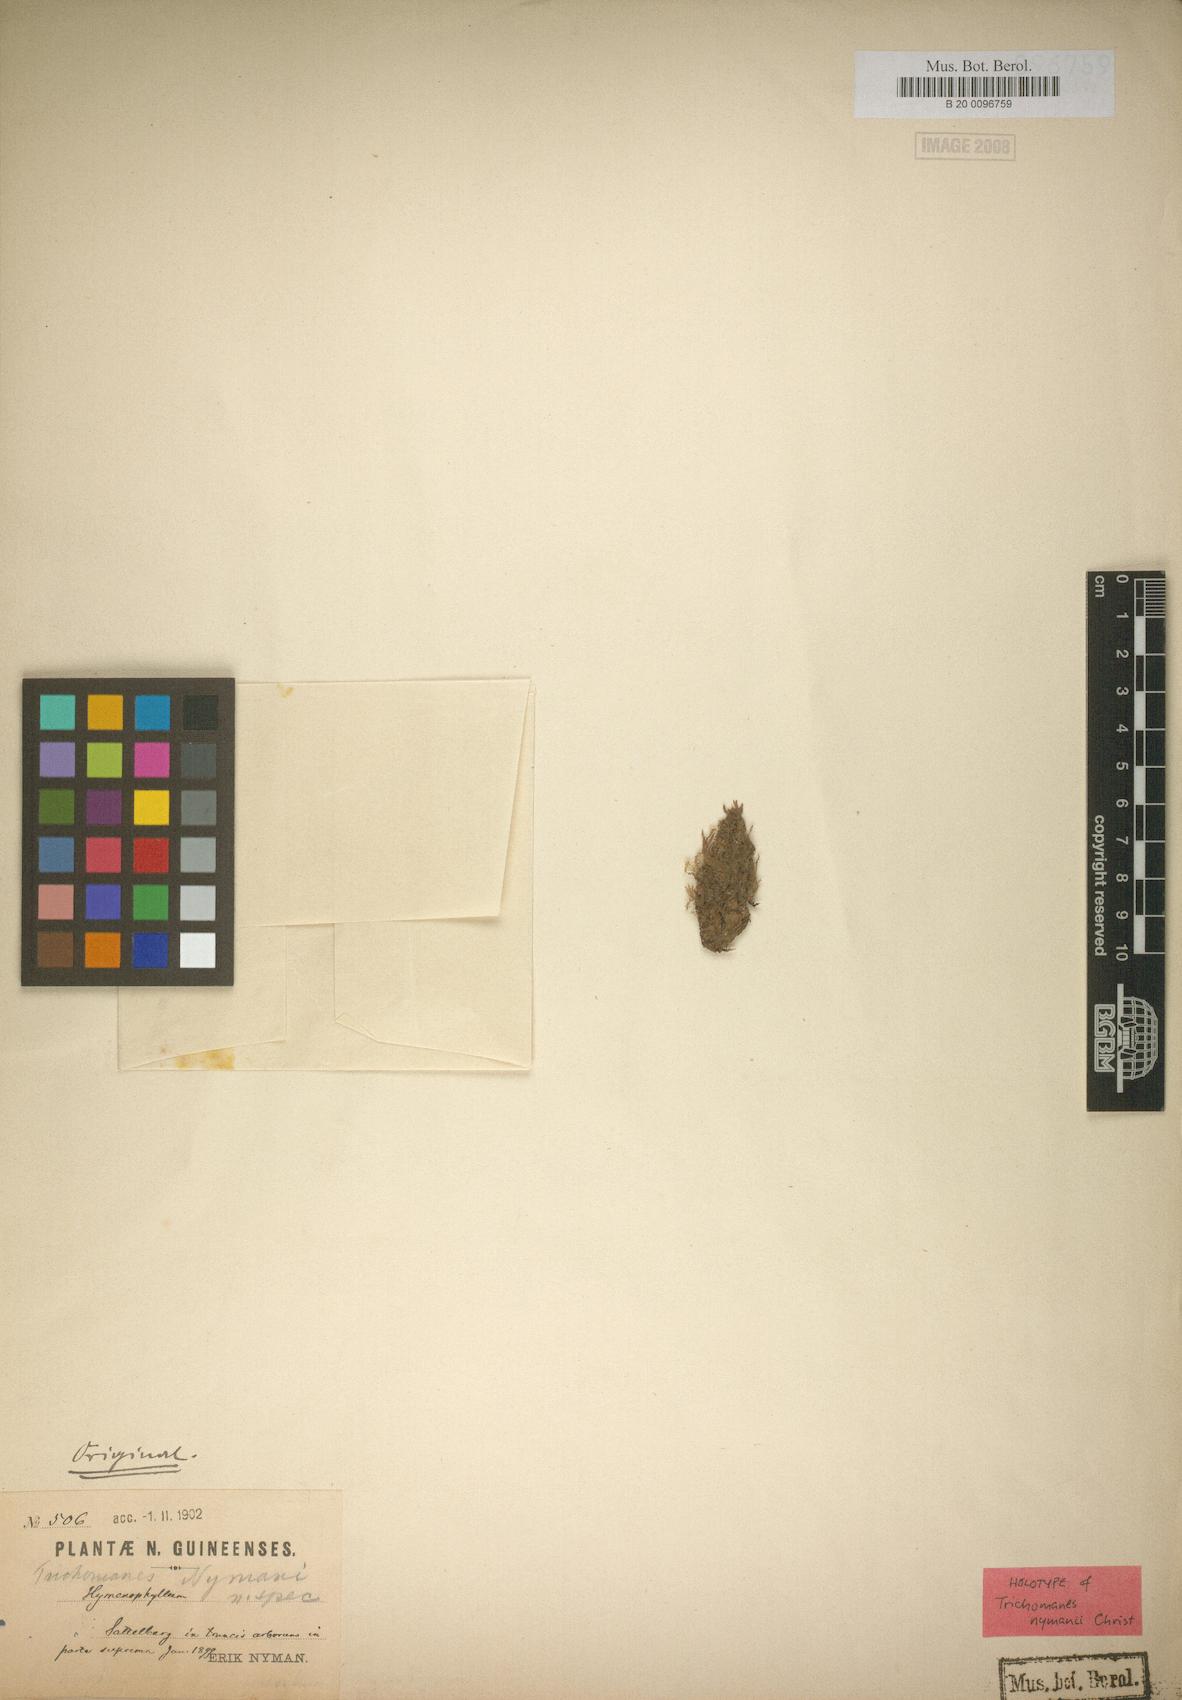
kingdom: Plantae
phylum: Tracheophyta
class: Polypodiopsida
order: Hymenophyllales
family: Hymenophyllaceae
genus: Crepidomanes
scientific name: Crepidomanes kurzii
